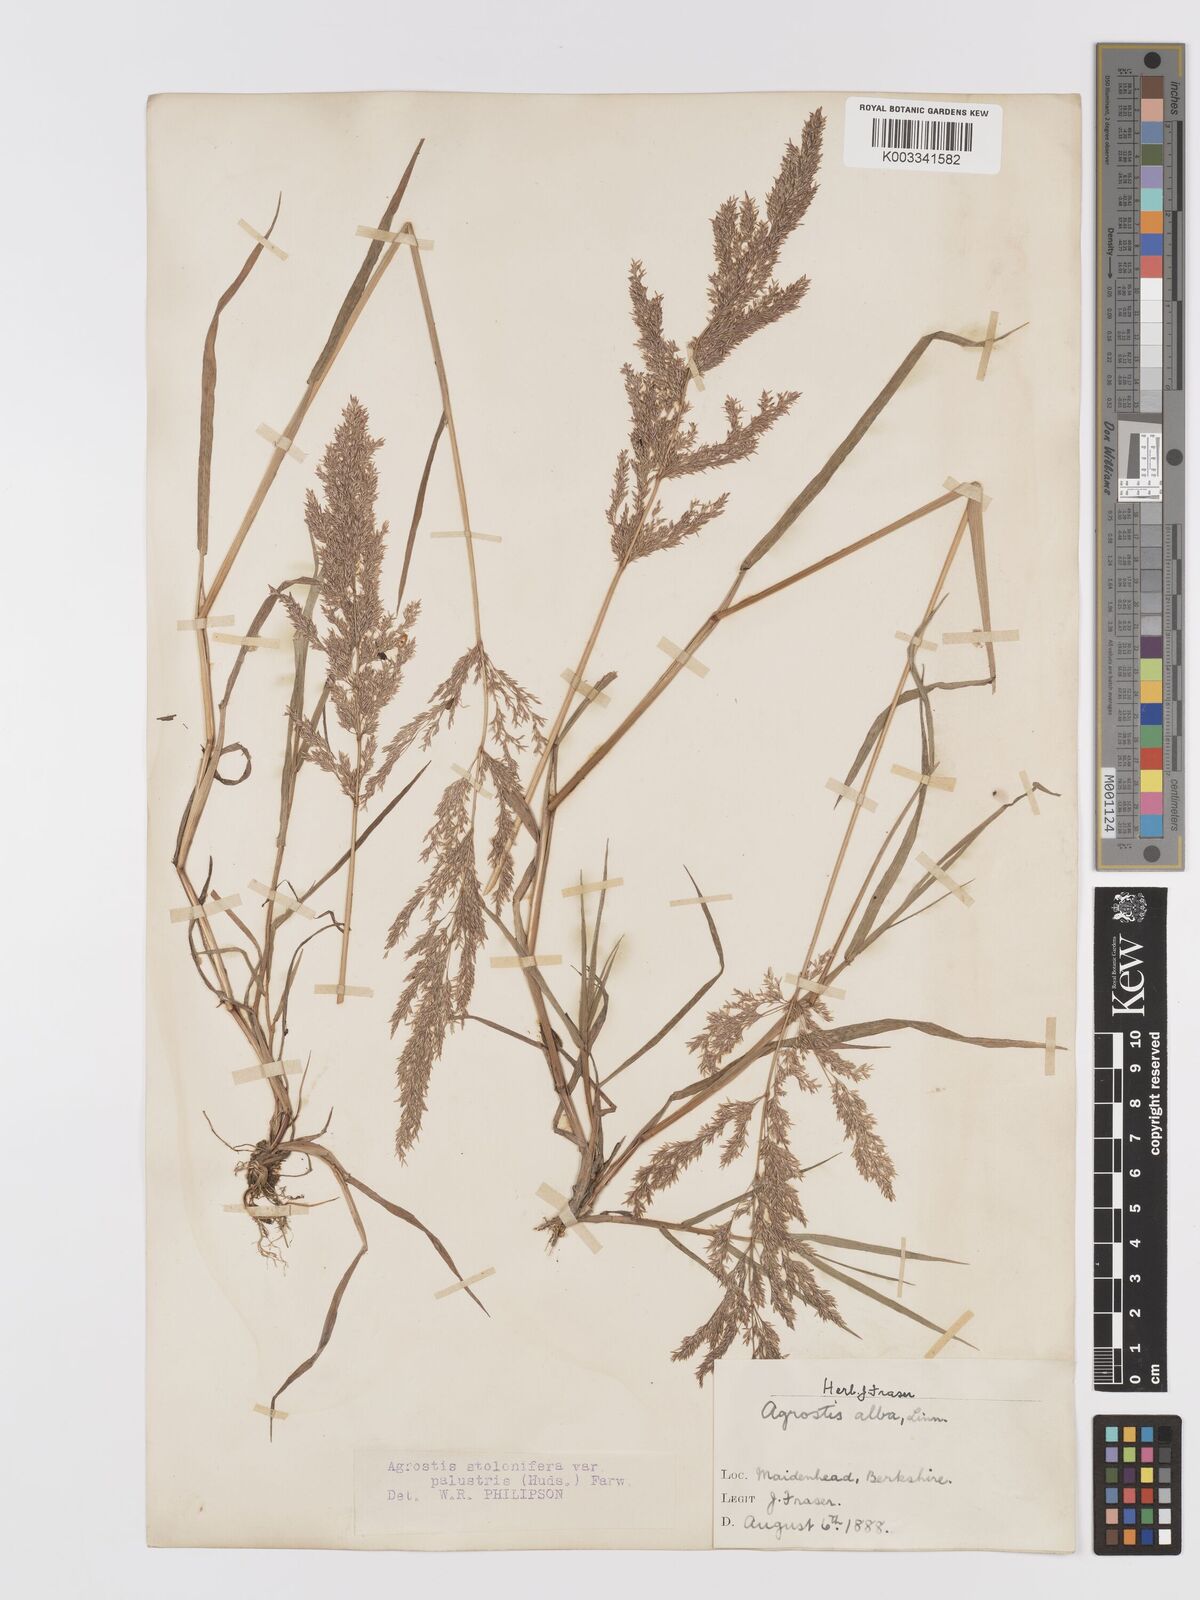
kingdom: Plantae
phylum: Tracheophyta
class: Liliopsida
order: Poales
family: Poaceae
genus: Agrostis
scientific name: Agrostis stolonifera
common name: Creeping bentgrass
